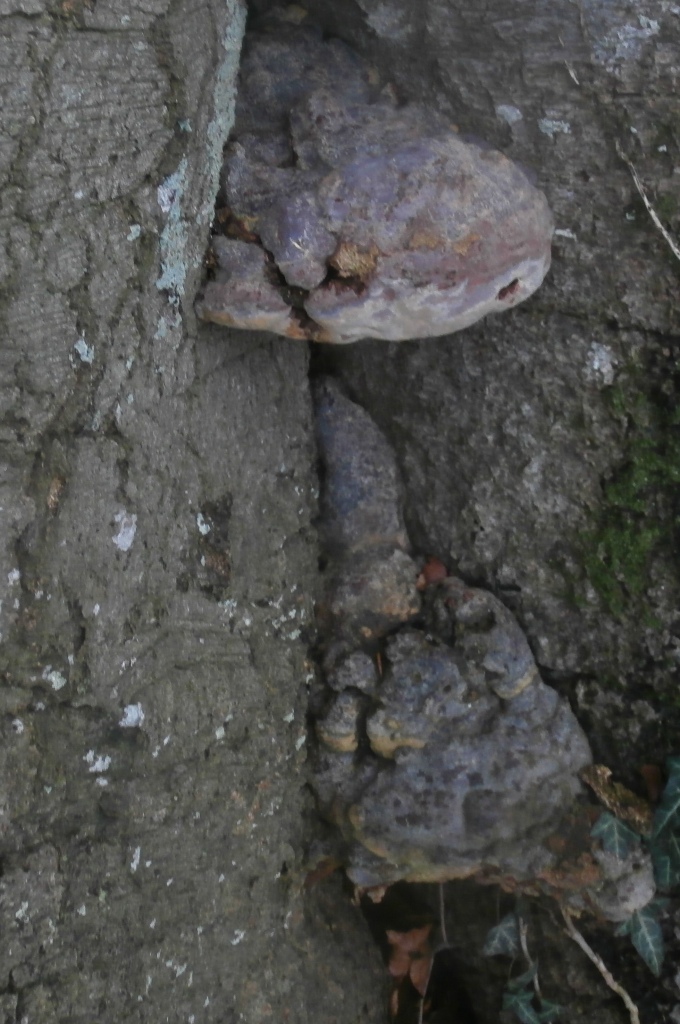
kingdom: Fungi
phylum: Basidiomycota
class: Agaricomycetes
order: Polyporales
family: Polyporaceae
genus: Ganoderma
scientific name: Ganoderma pfeifferi
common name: kobberrød lakporesvamp
